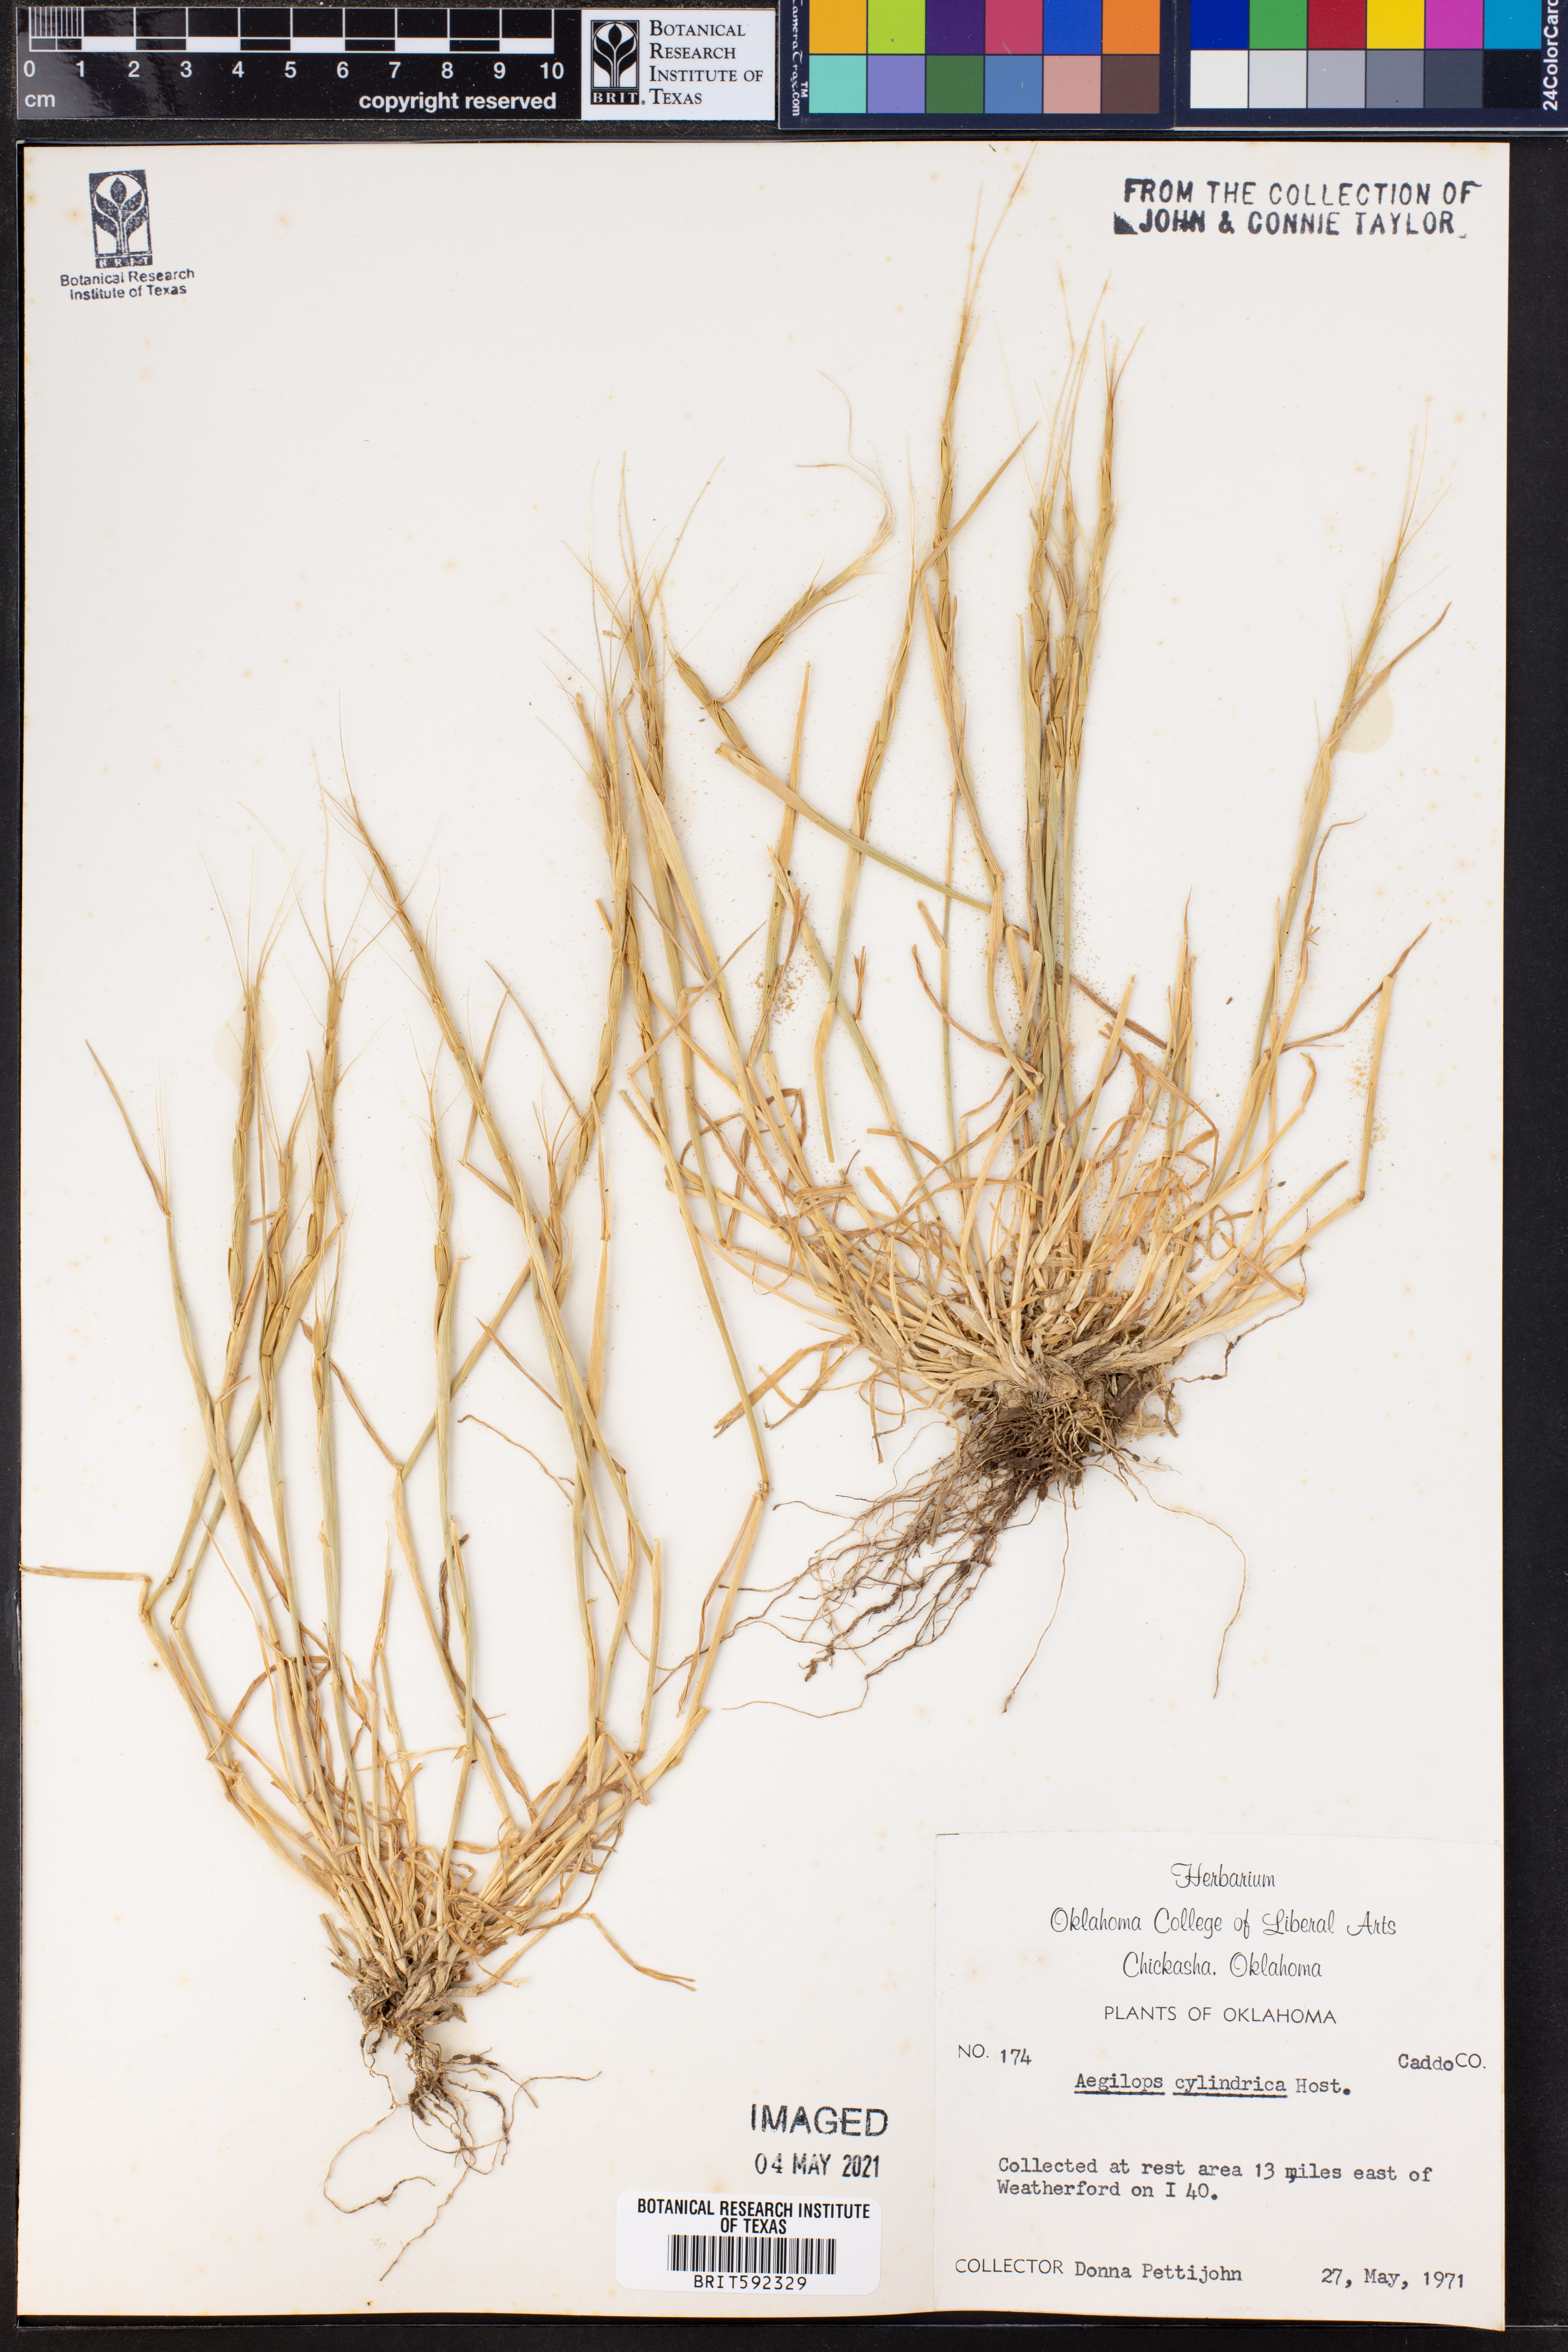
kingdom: Plantae
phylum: Tracheophyta
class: Liliopsida
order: Poales
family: Poaceae
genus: Aegilops
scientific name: Aegilops cylindrica
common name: Jointed goatgrass
